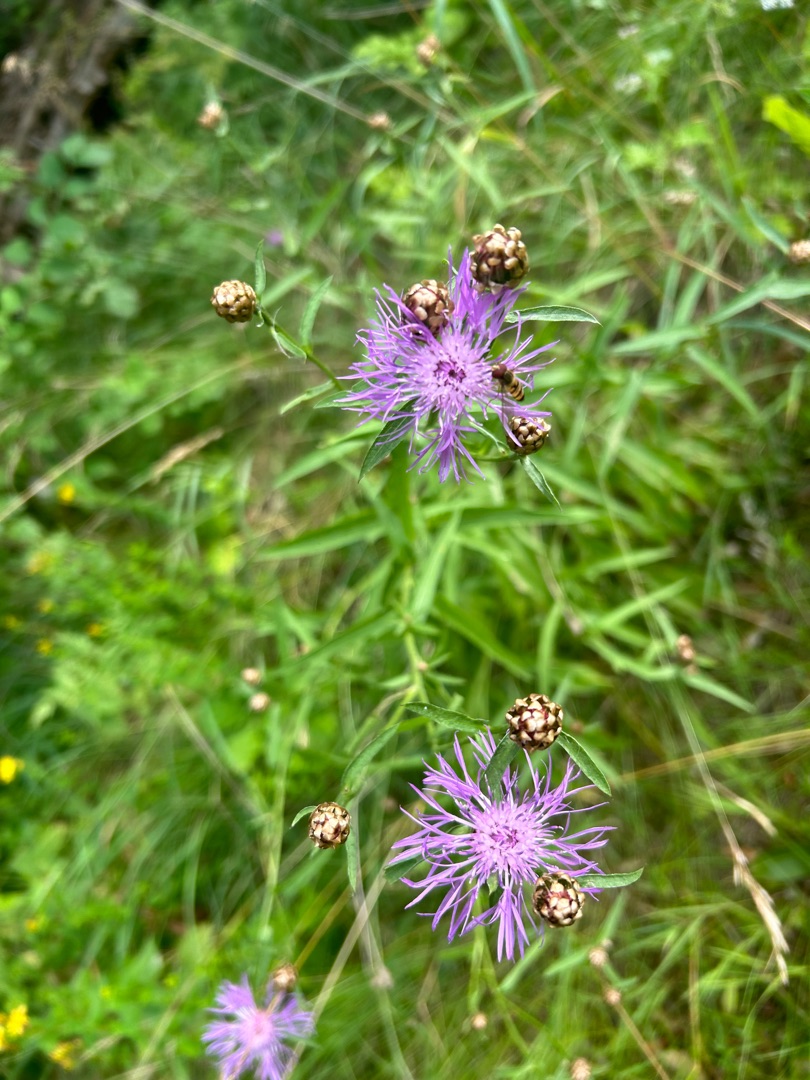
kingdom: Plantae
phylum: Tracheophyta
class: Magnoliopsida
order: Asterales
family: Asteraceae
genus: Centaurea
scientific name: Centaurea jacea
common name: Almindelig knopurt
